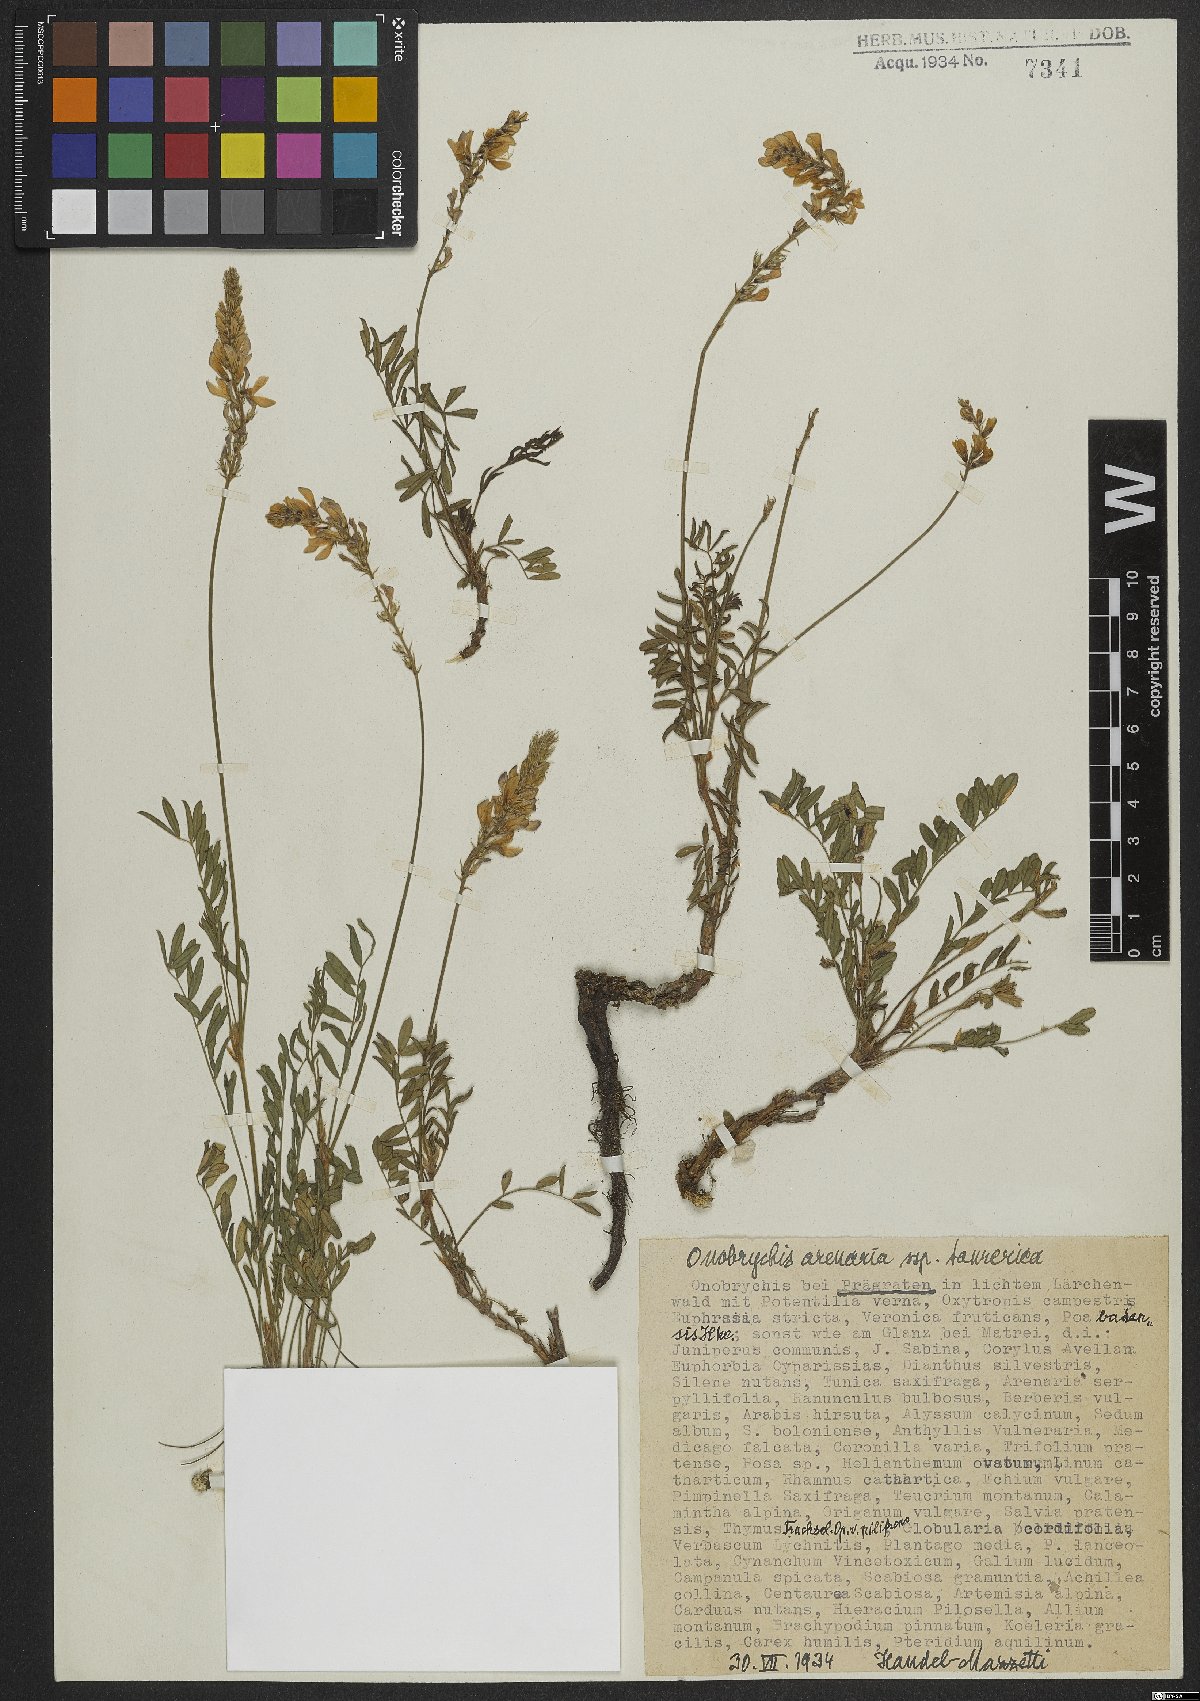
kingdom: Plantae
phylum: Tracheophyta
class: Magnoliopsida
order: Fabales
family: Fabaceae
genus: Onobrychis
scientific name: Onobrychis arenaria
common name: Sand esparcet
